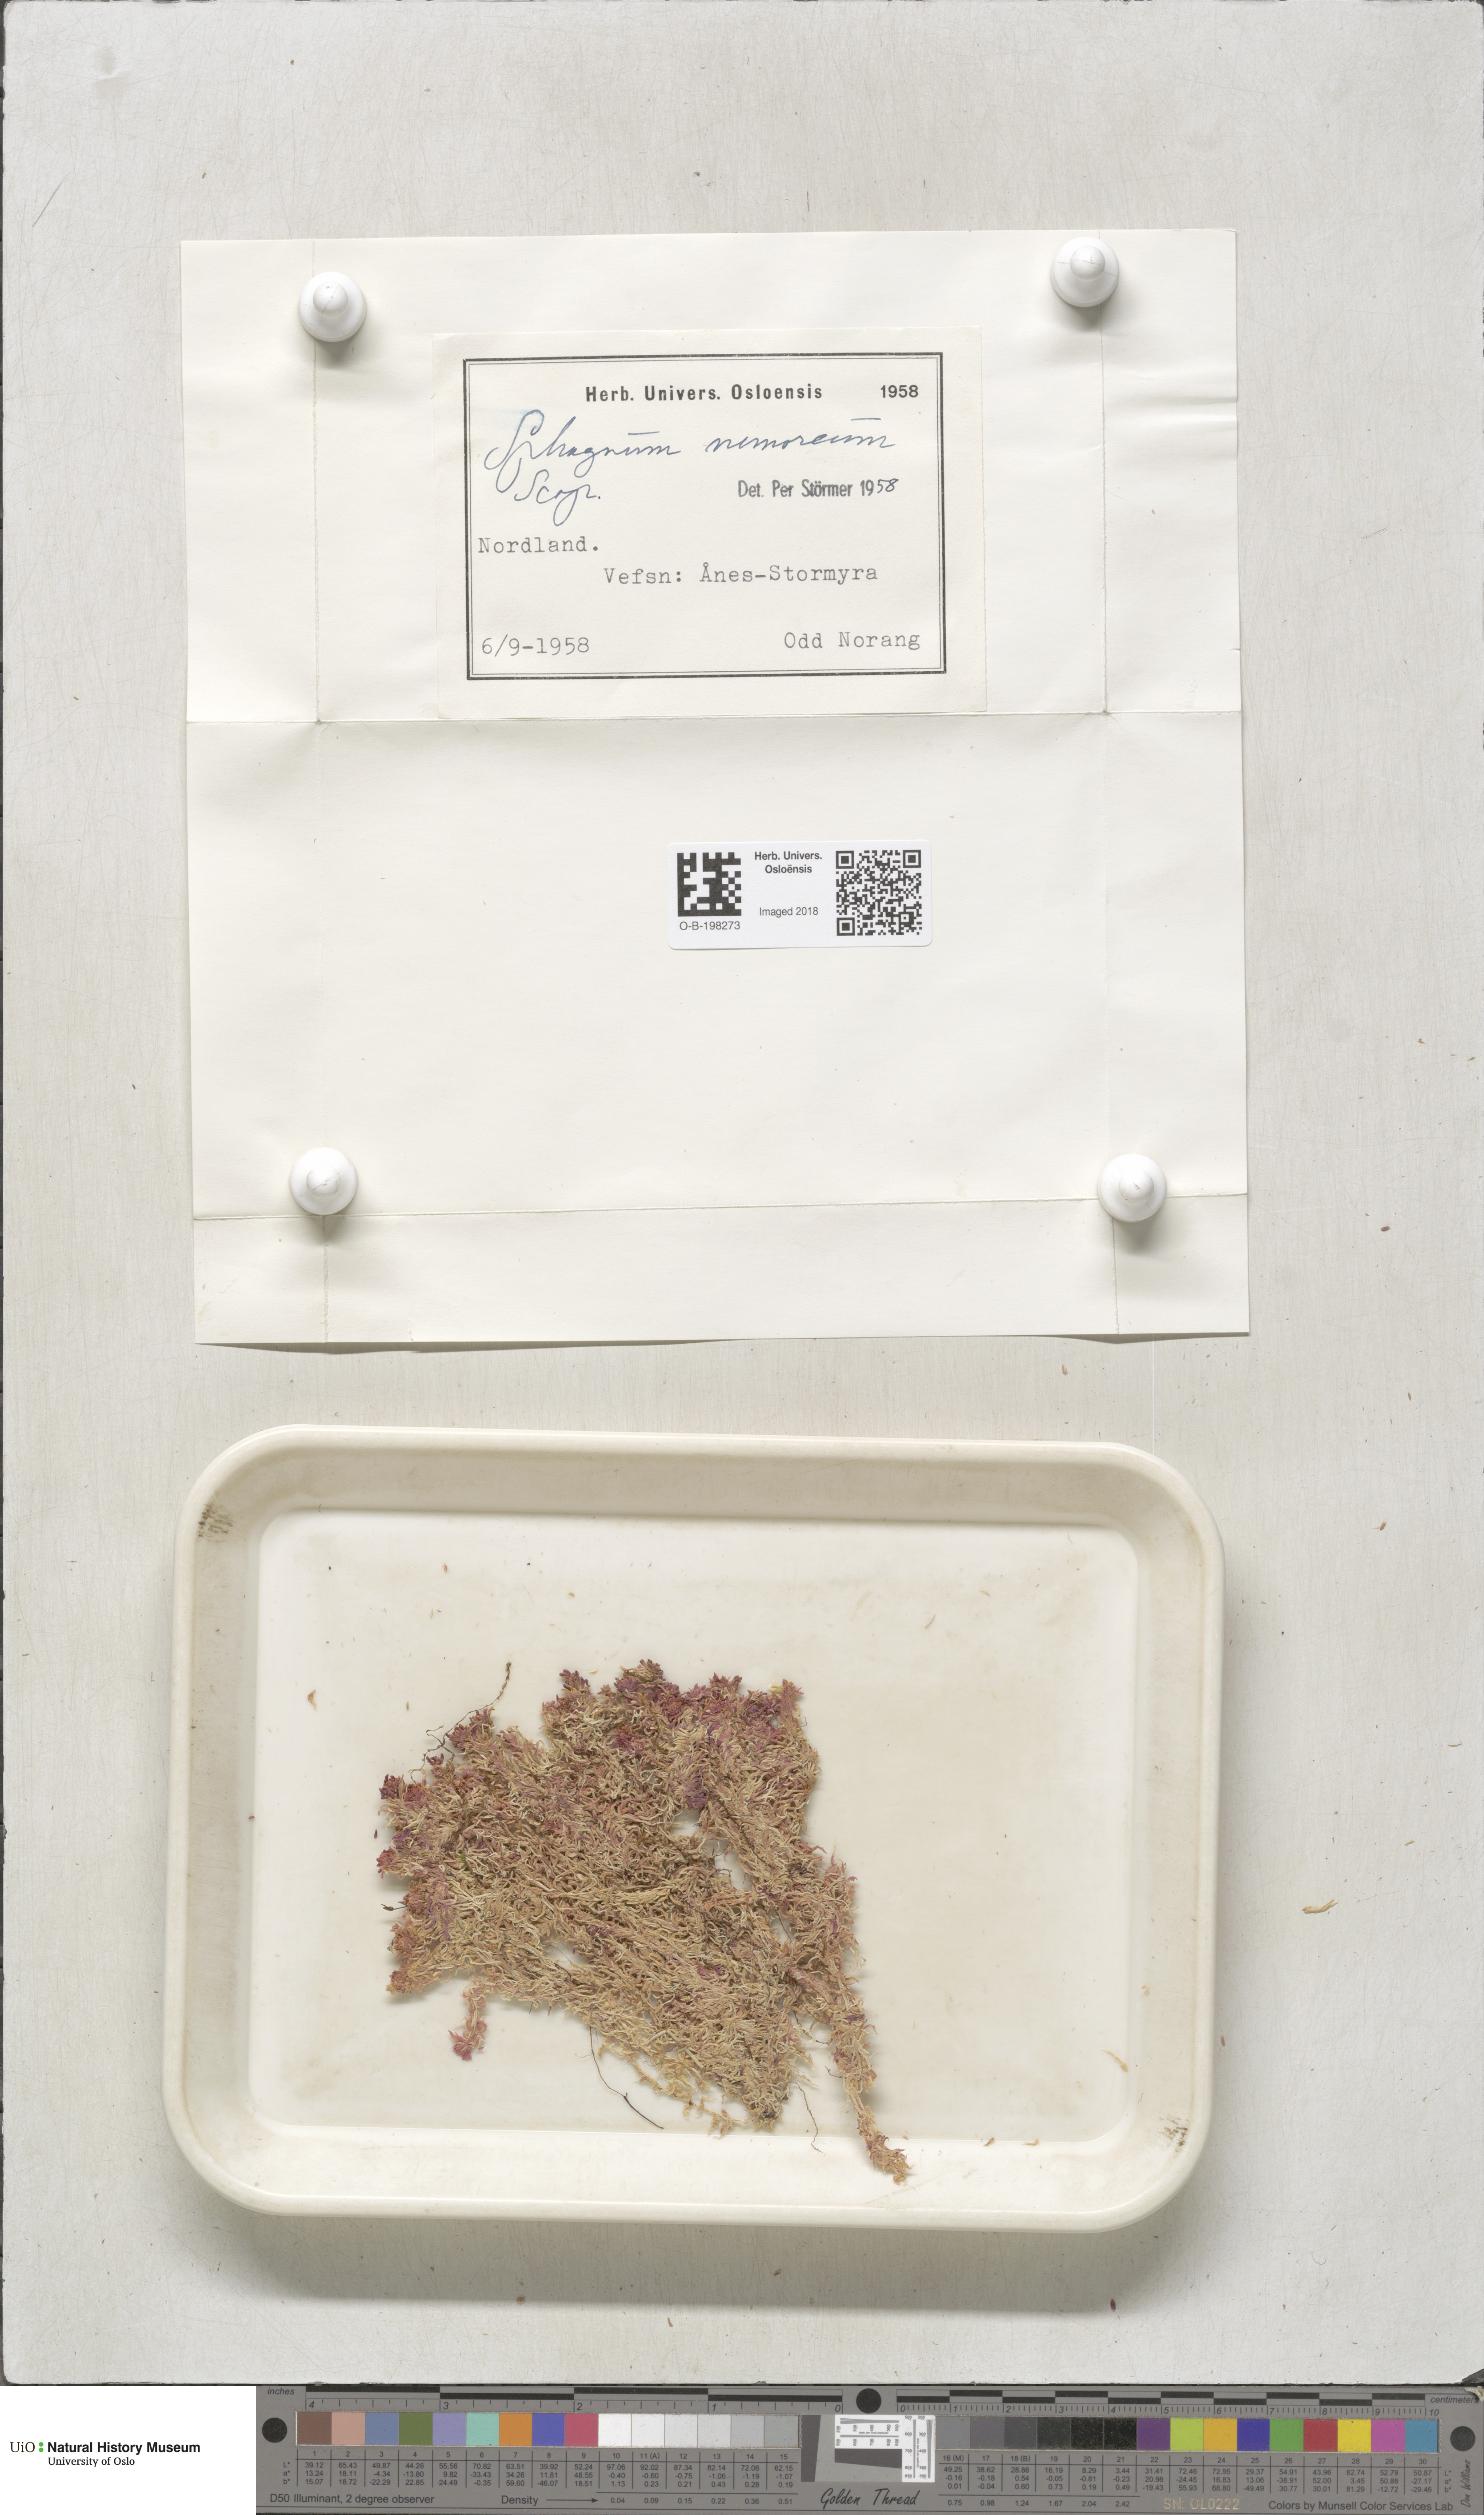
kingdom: Plantae
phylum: Bryophyta
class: Sphagnopsida
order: Sphagnales
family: Sphagnaceae
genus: Sphagnum
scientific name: Sphagnum capillifolium
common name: Small red peat moss
